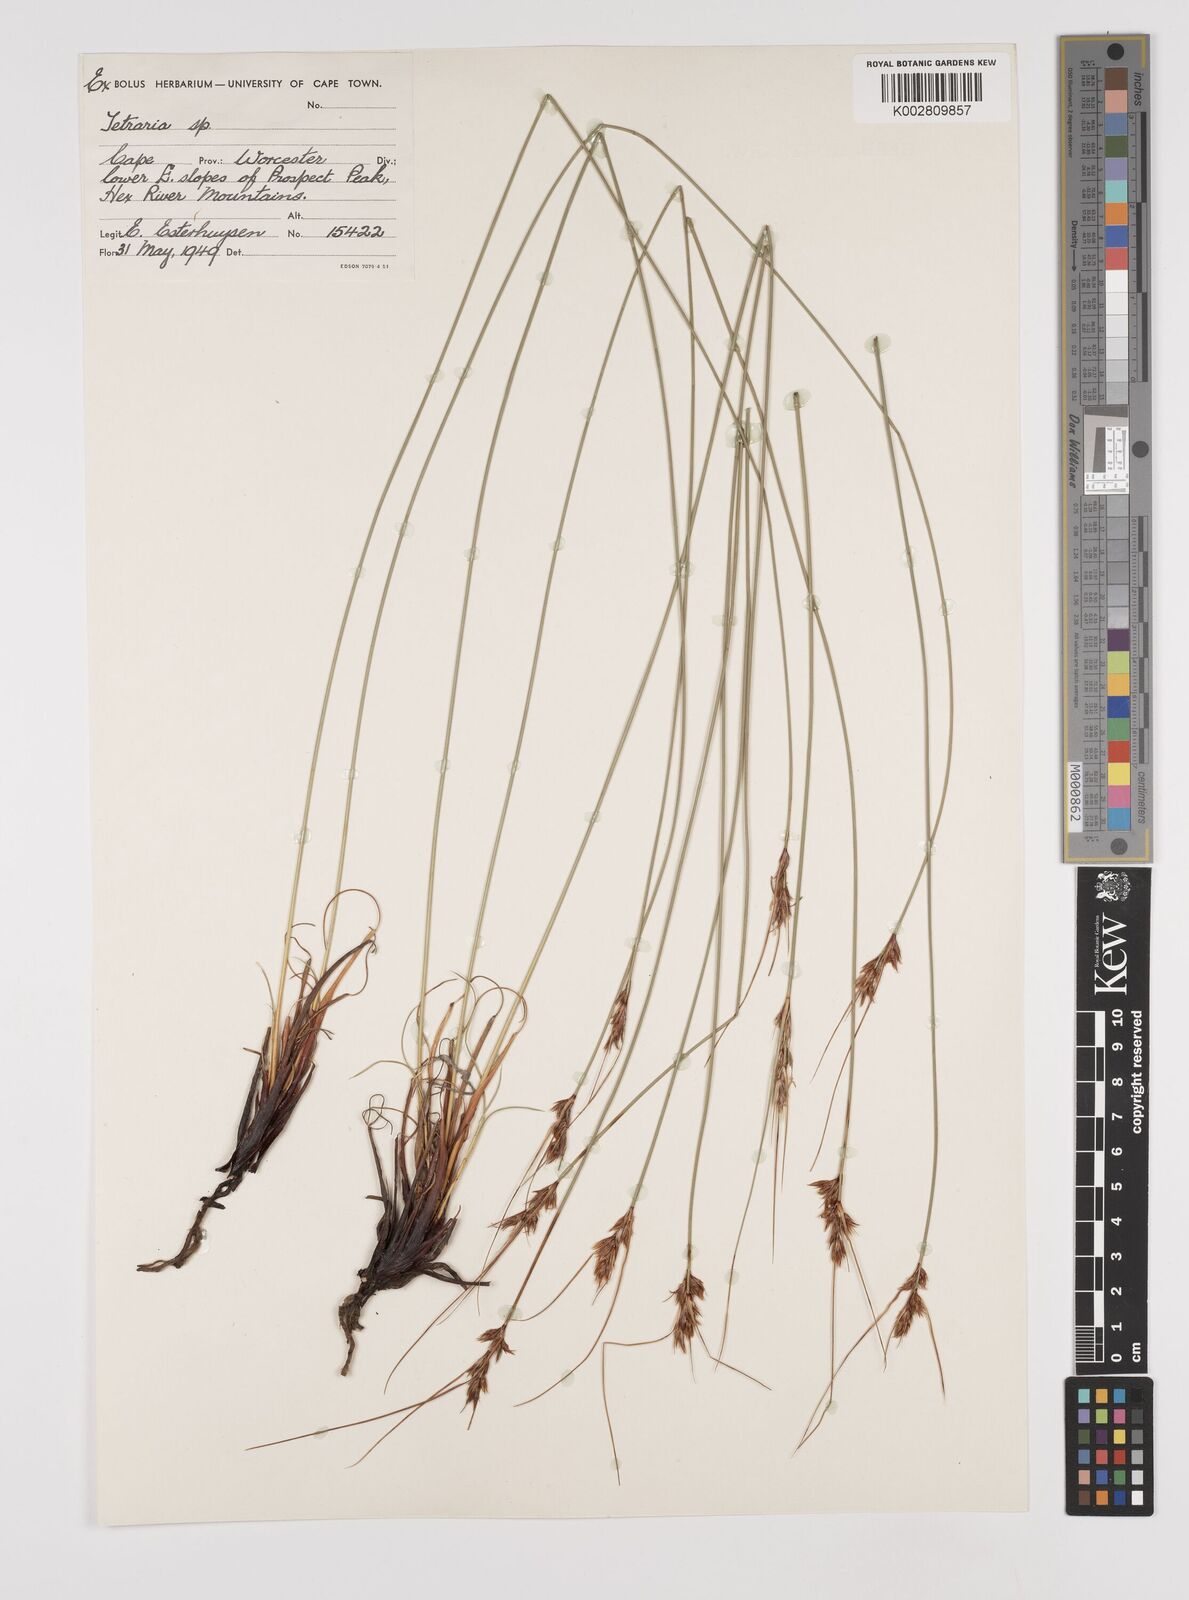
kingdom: Plantae
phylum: Tracheophyta
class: Liliopsida
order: Poales
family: Cyperaceae
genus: Schoenus
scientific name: Schoenus pseudoloreus
